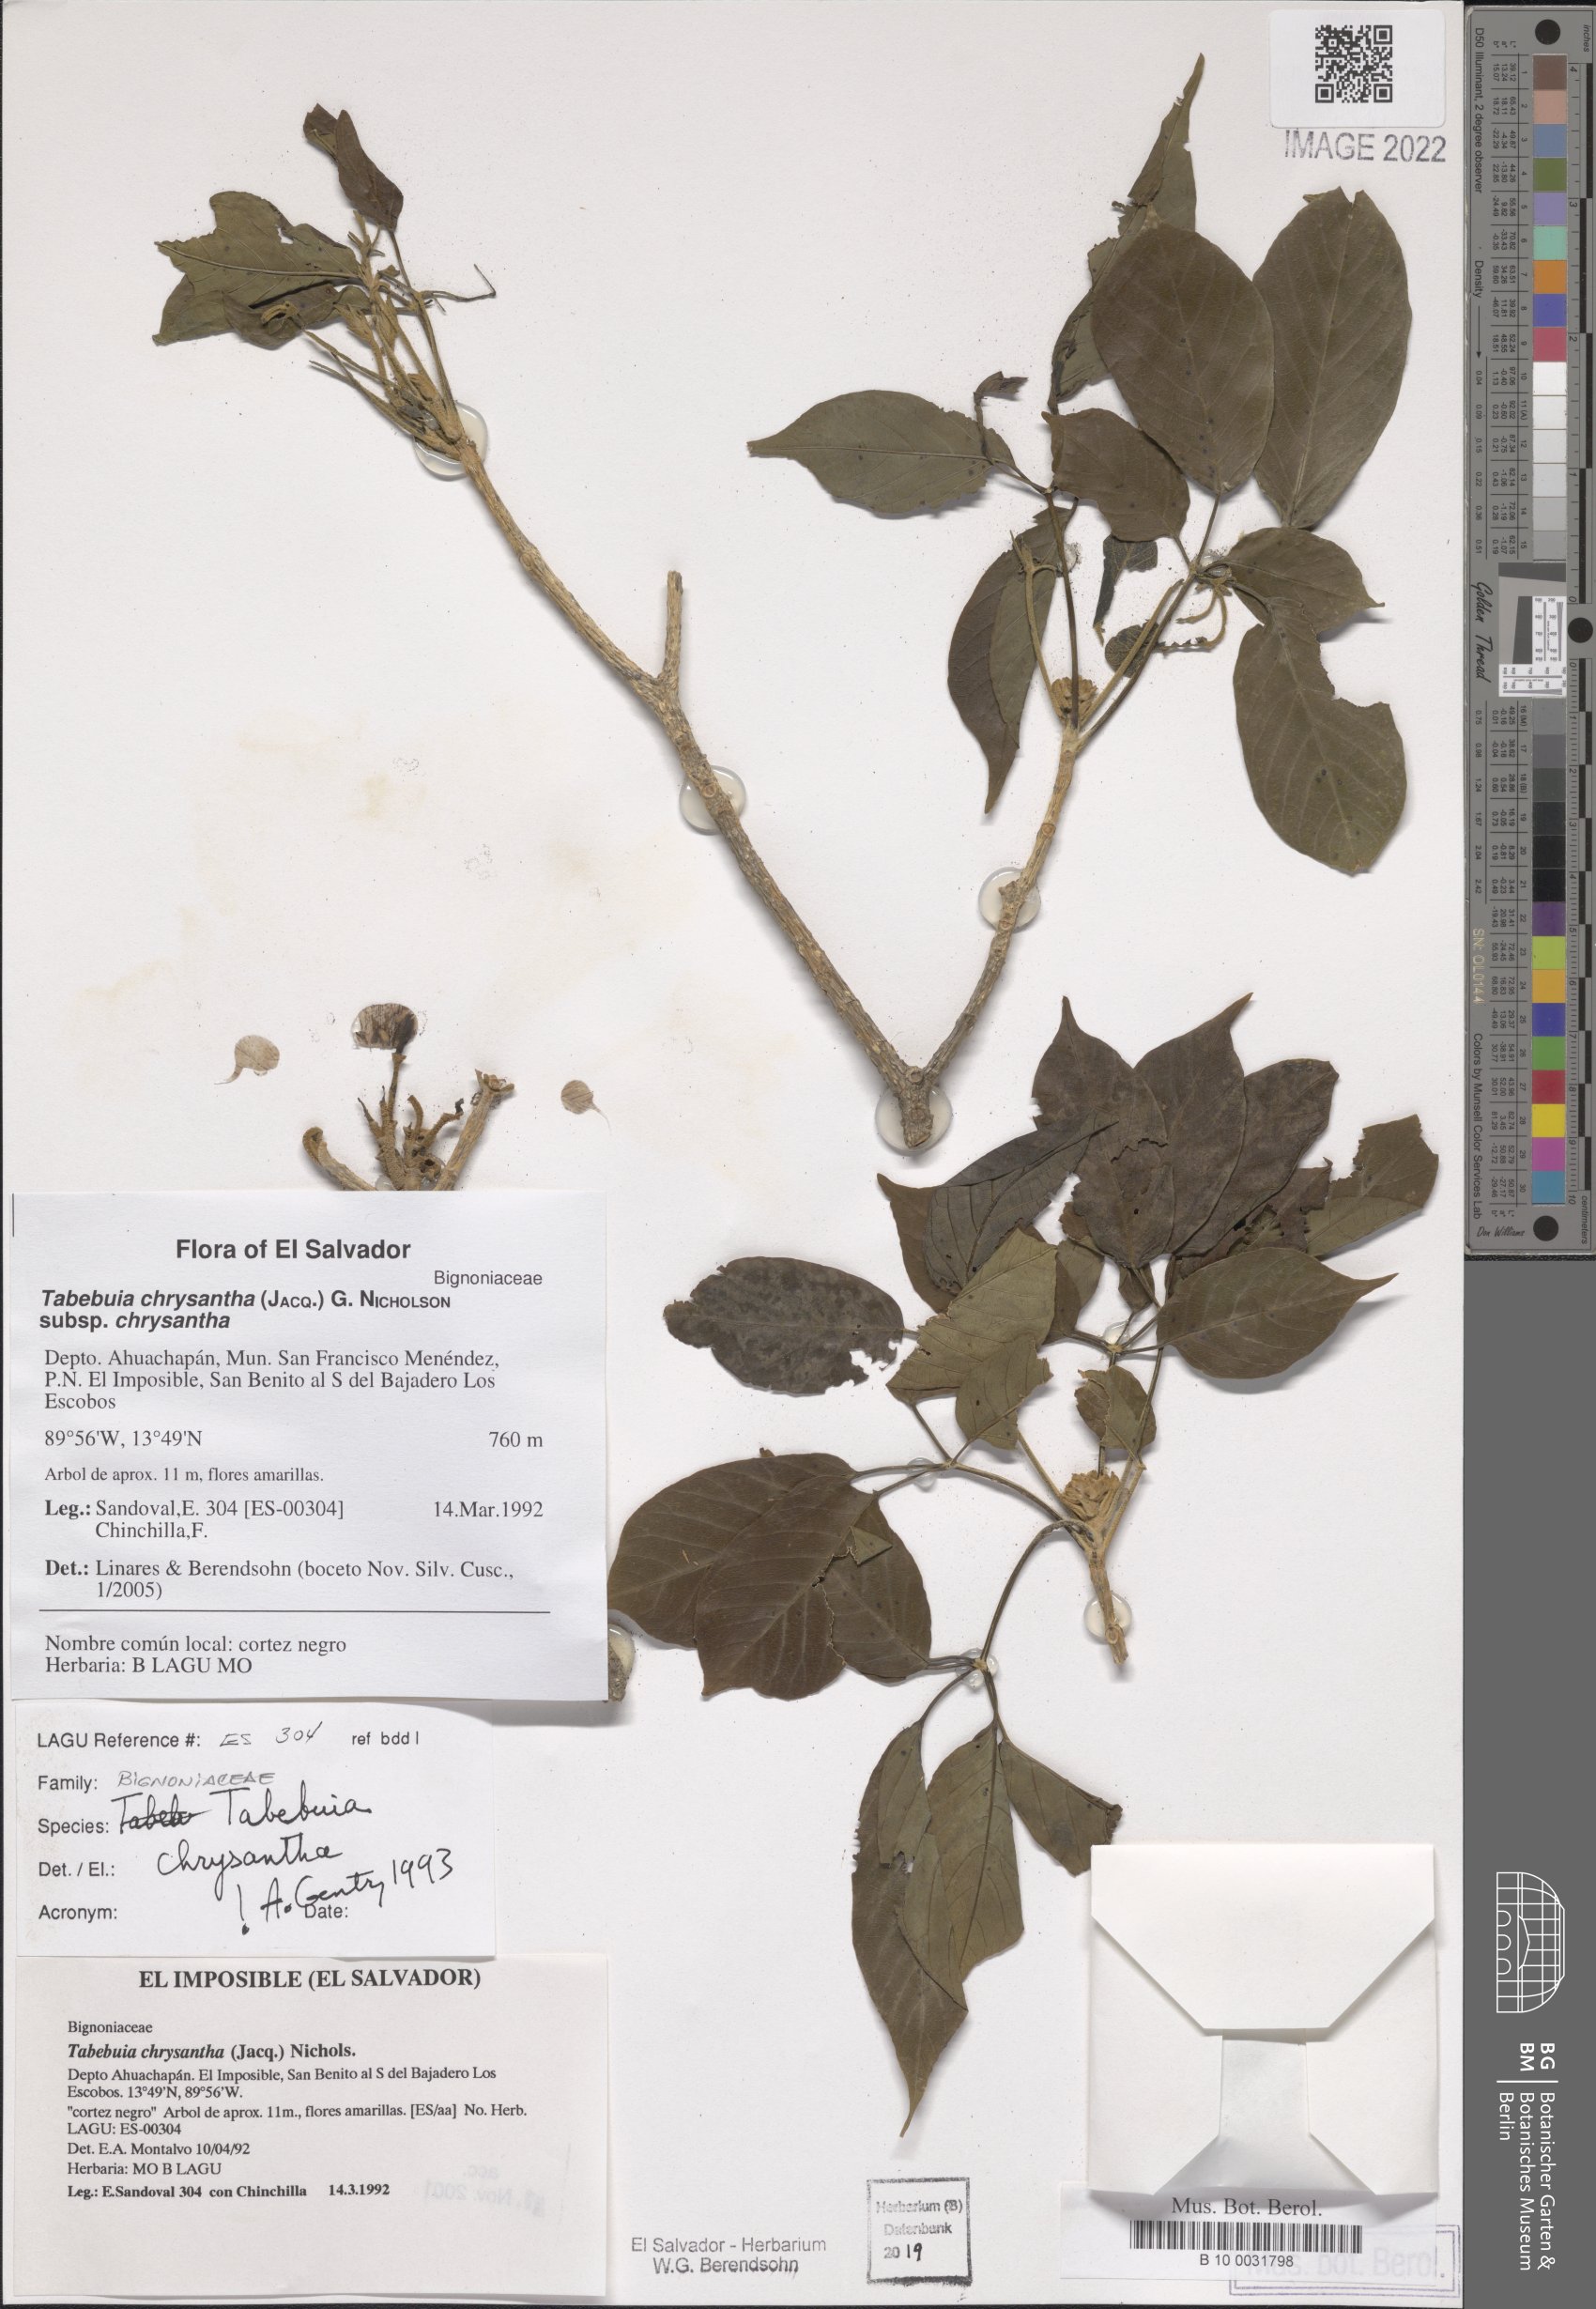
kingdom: Plantae
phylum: Tracheophyta
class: Magnoliopsida
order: Lamiales
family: Bignoniaceae
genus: Handroanthus
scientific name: Handroanthus chrysanthus
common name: Trumpet trees
